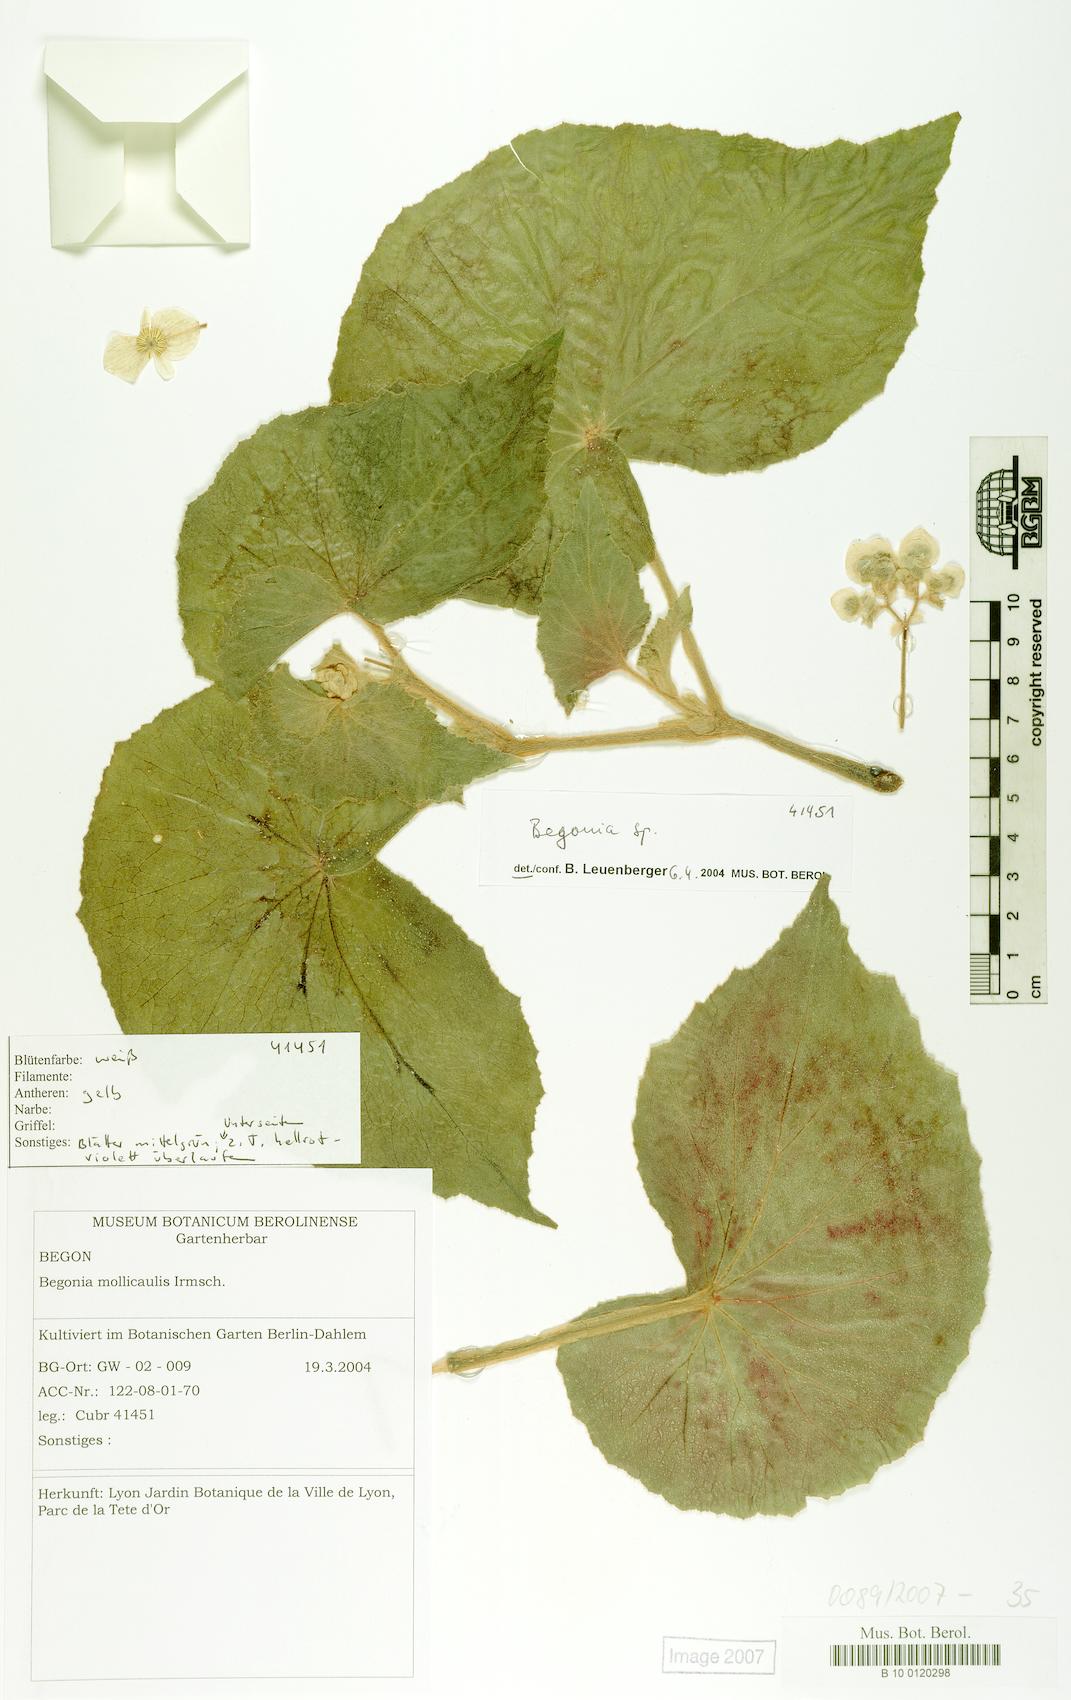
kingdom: Plantae
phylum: Tracheophyta
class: Magnoliopsida
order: Cucurbitales
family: Begoniaceae
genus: Begonia
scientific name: Begonia
